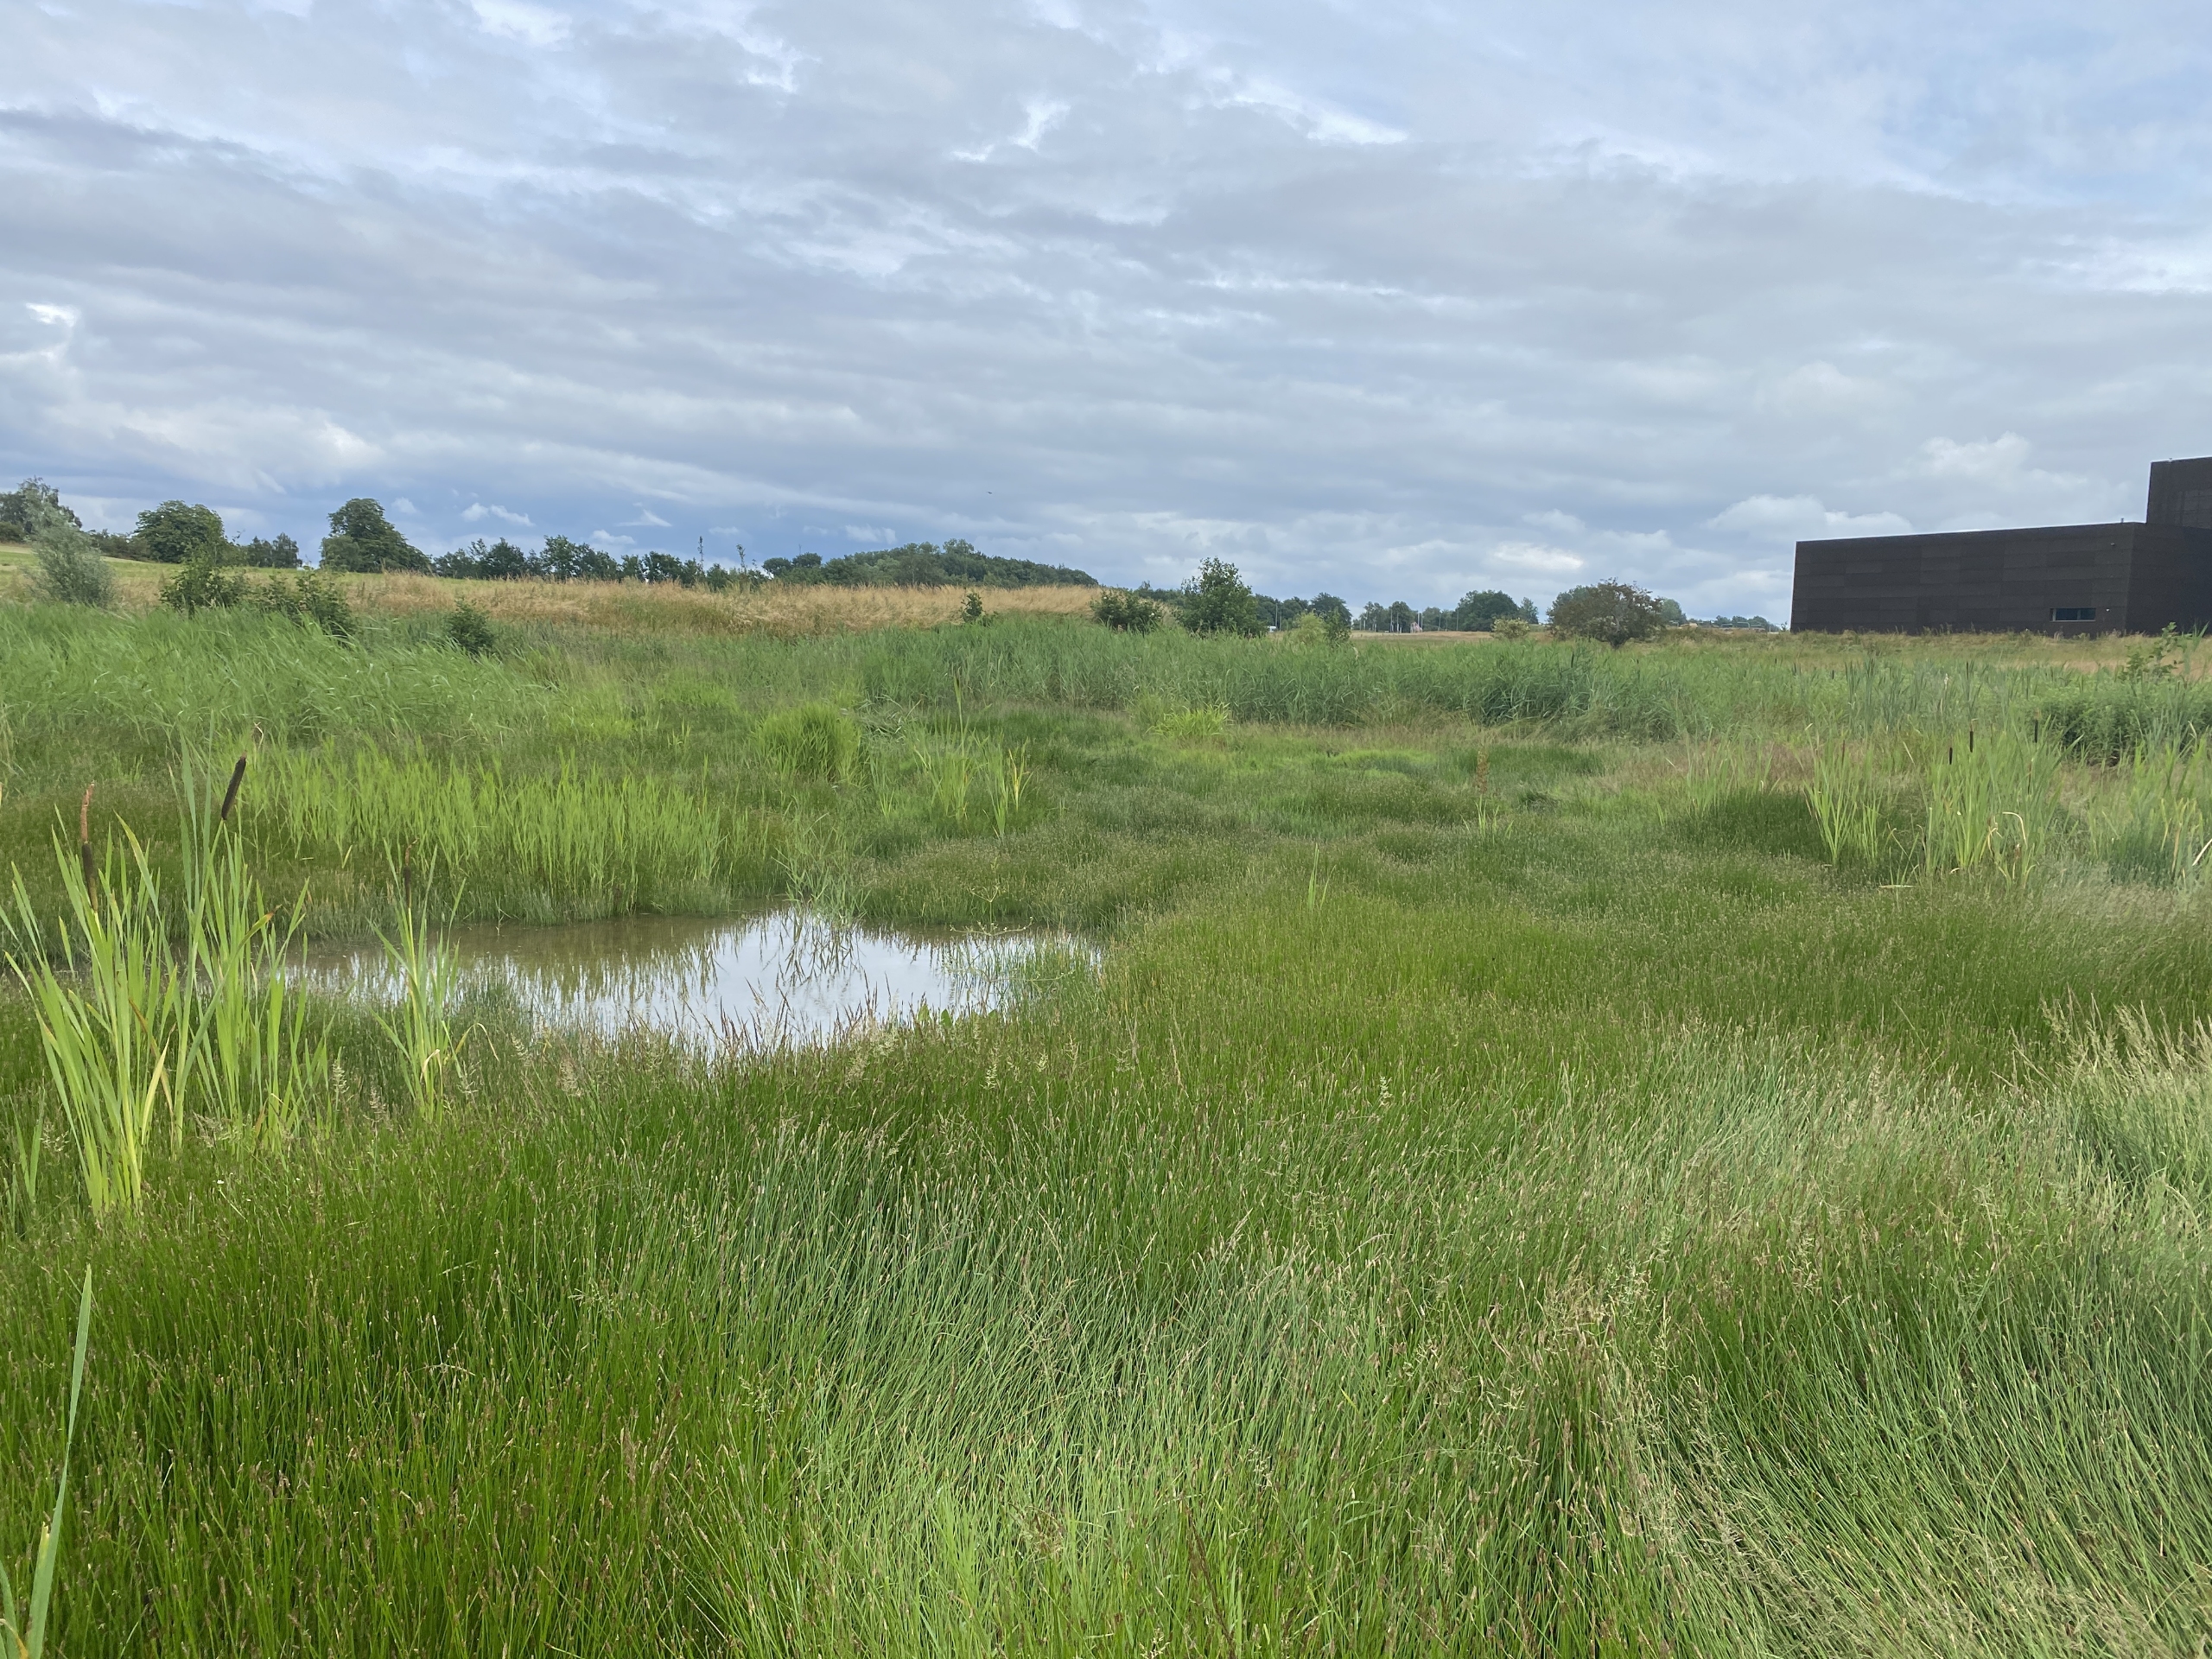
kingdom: Plantae
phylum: Tracheophyta
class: Liliopsida
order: Poales
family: Cyperaceae
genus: Eleocharis
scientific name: Eleocharis palustris
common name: Almindelig sumpstrå
